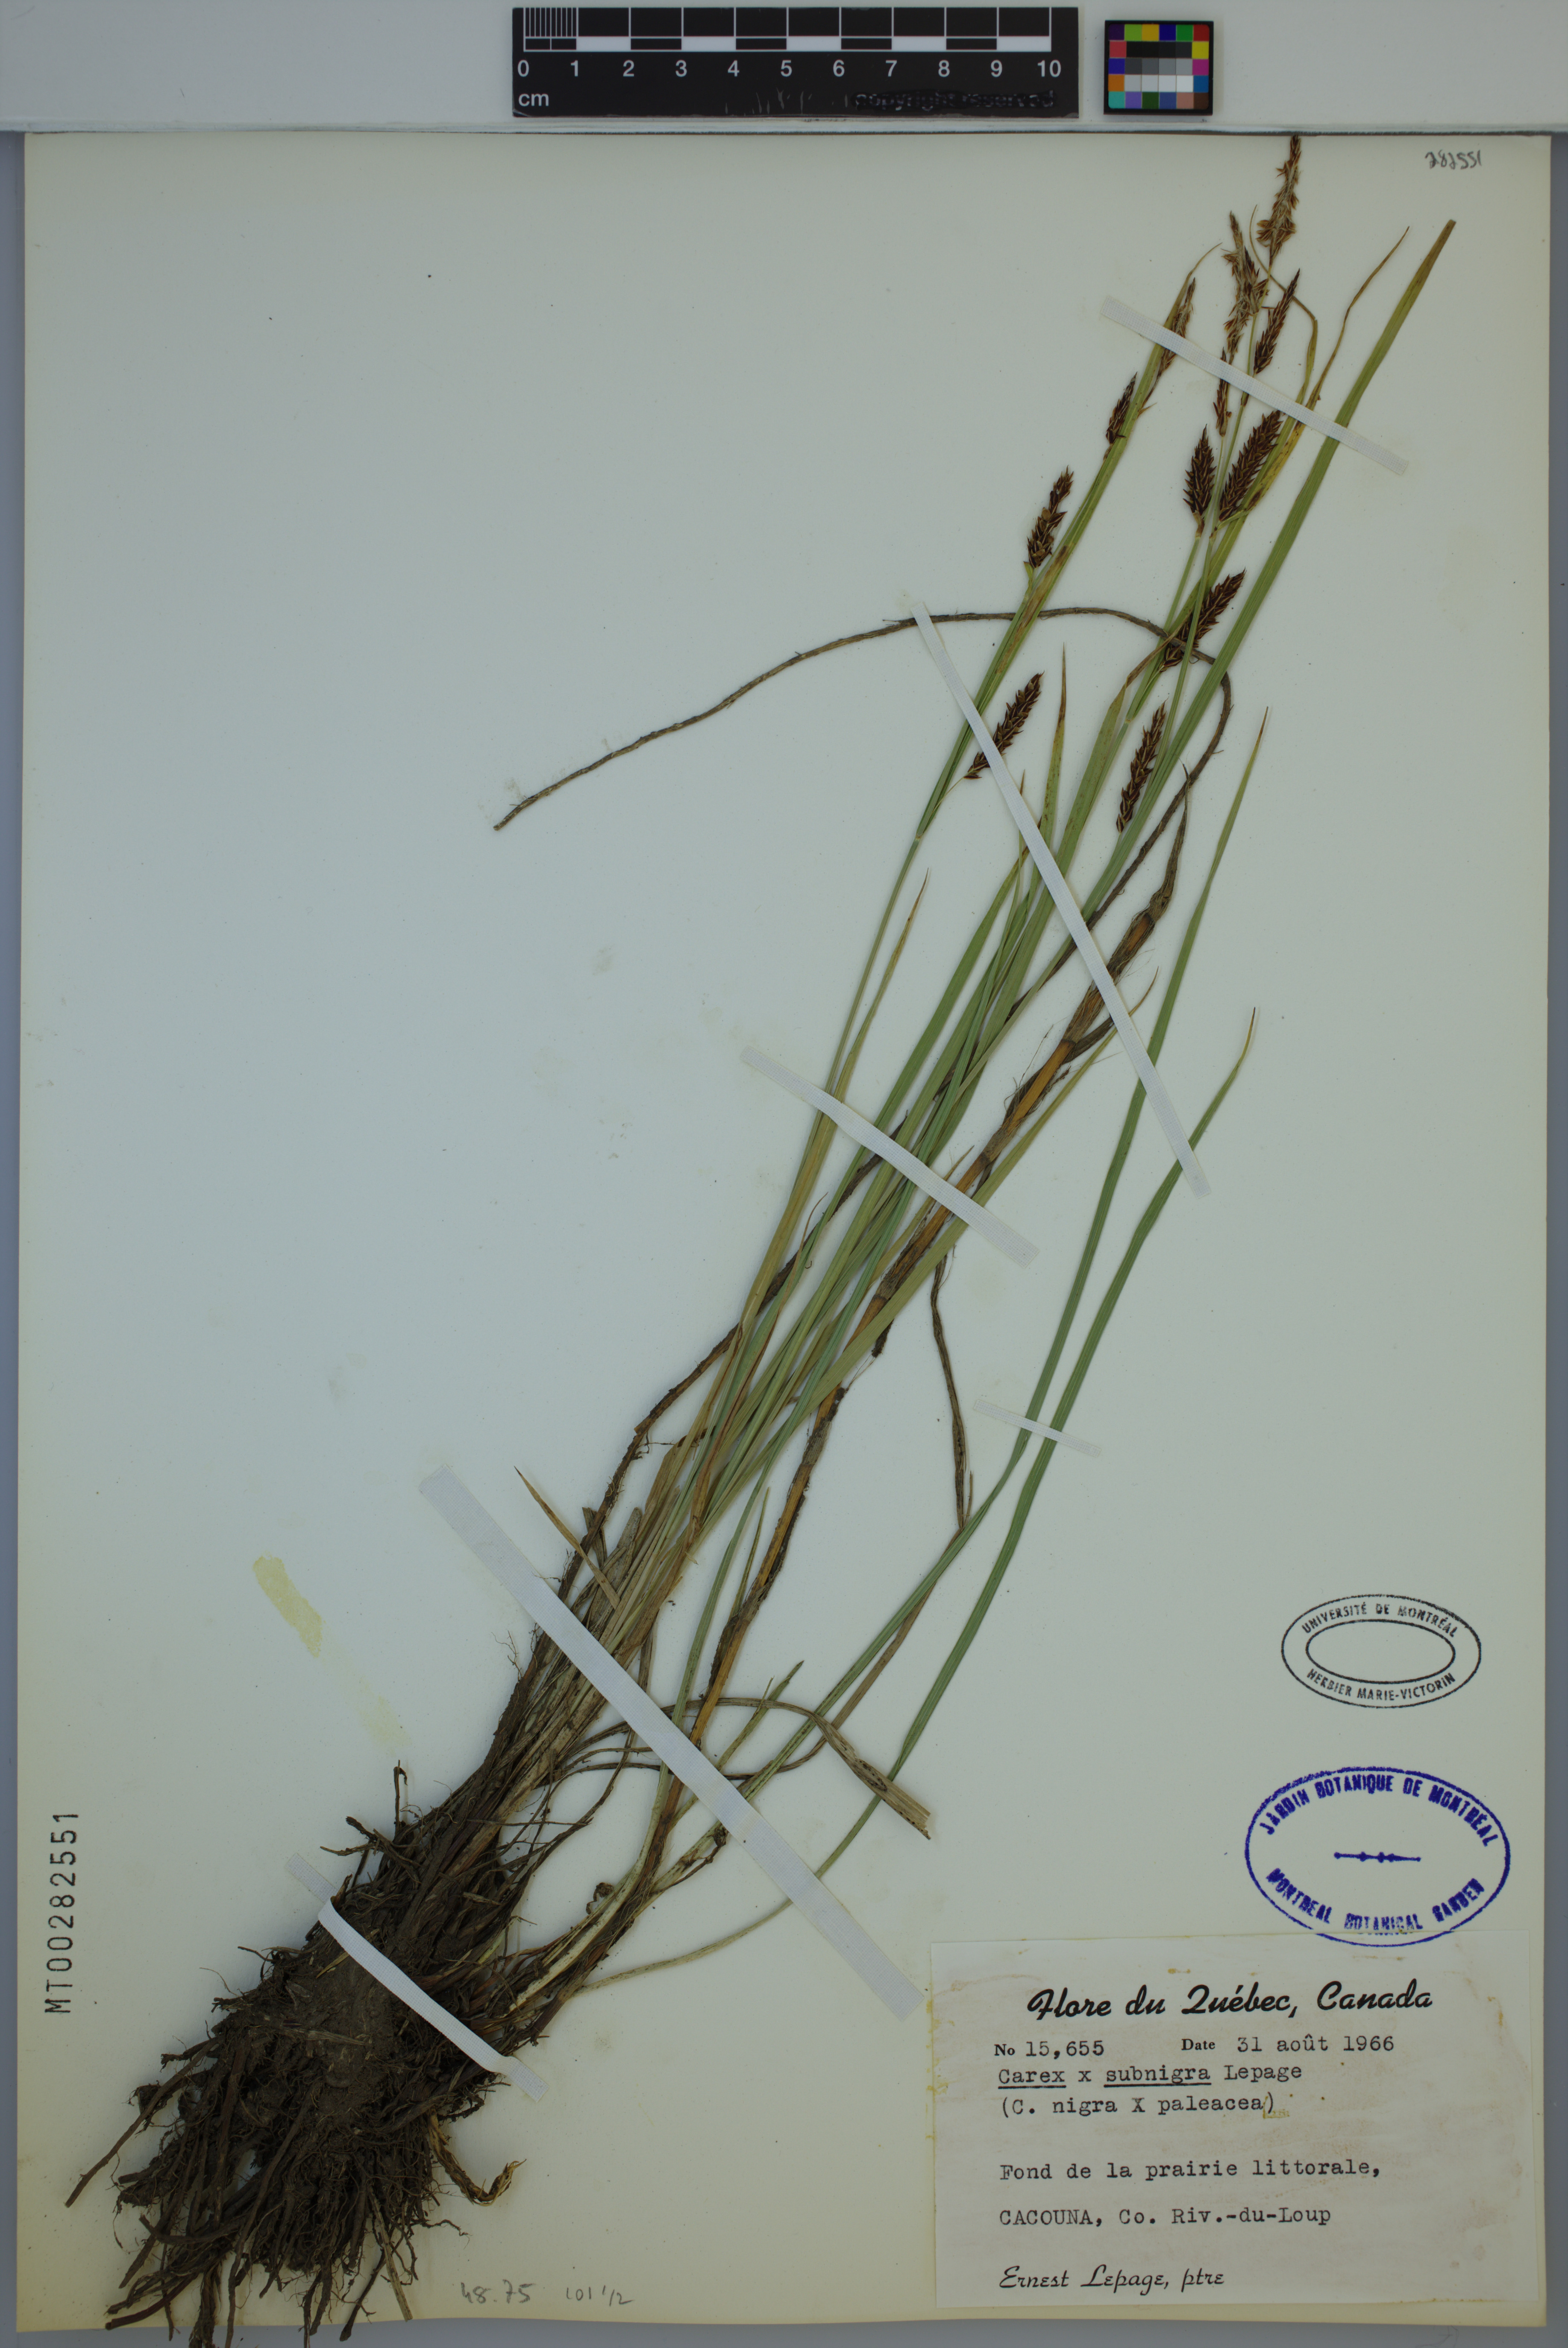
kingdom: Plantae
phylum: Tracheophyta
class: Liliopsida
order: Poales
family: Cyperaceae
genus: Carex
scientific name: Carex vacillans
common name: Sedge
